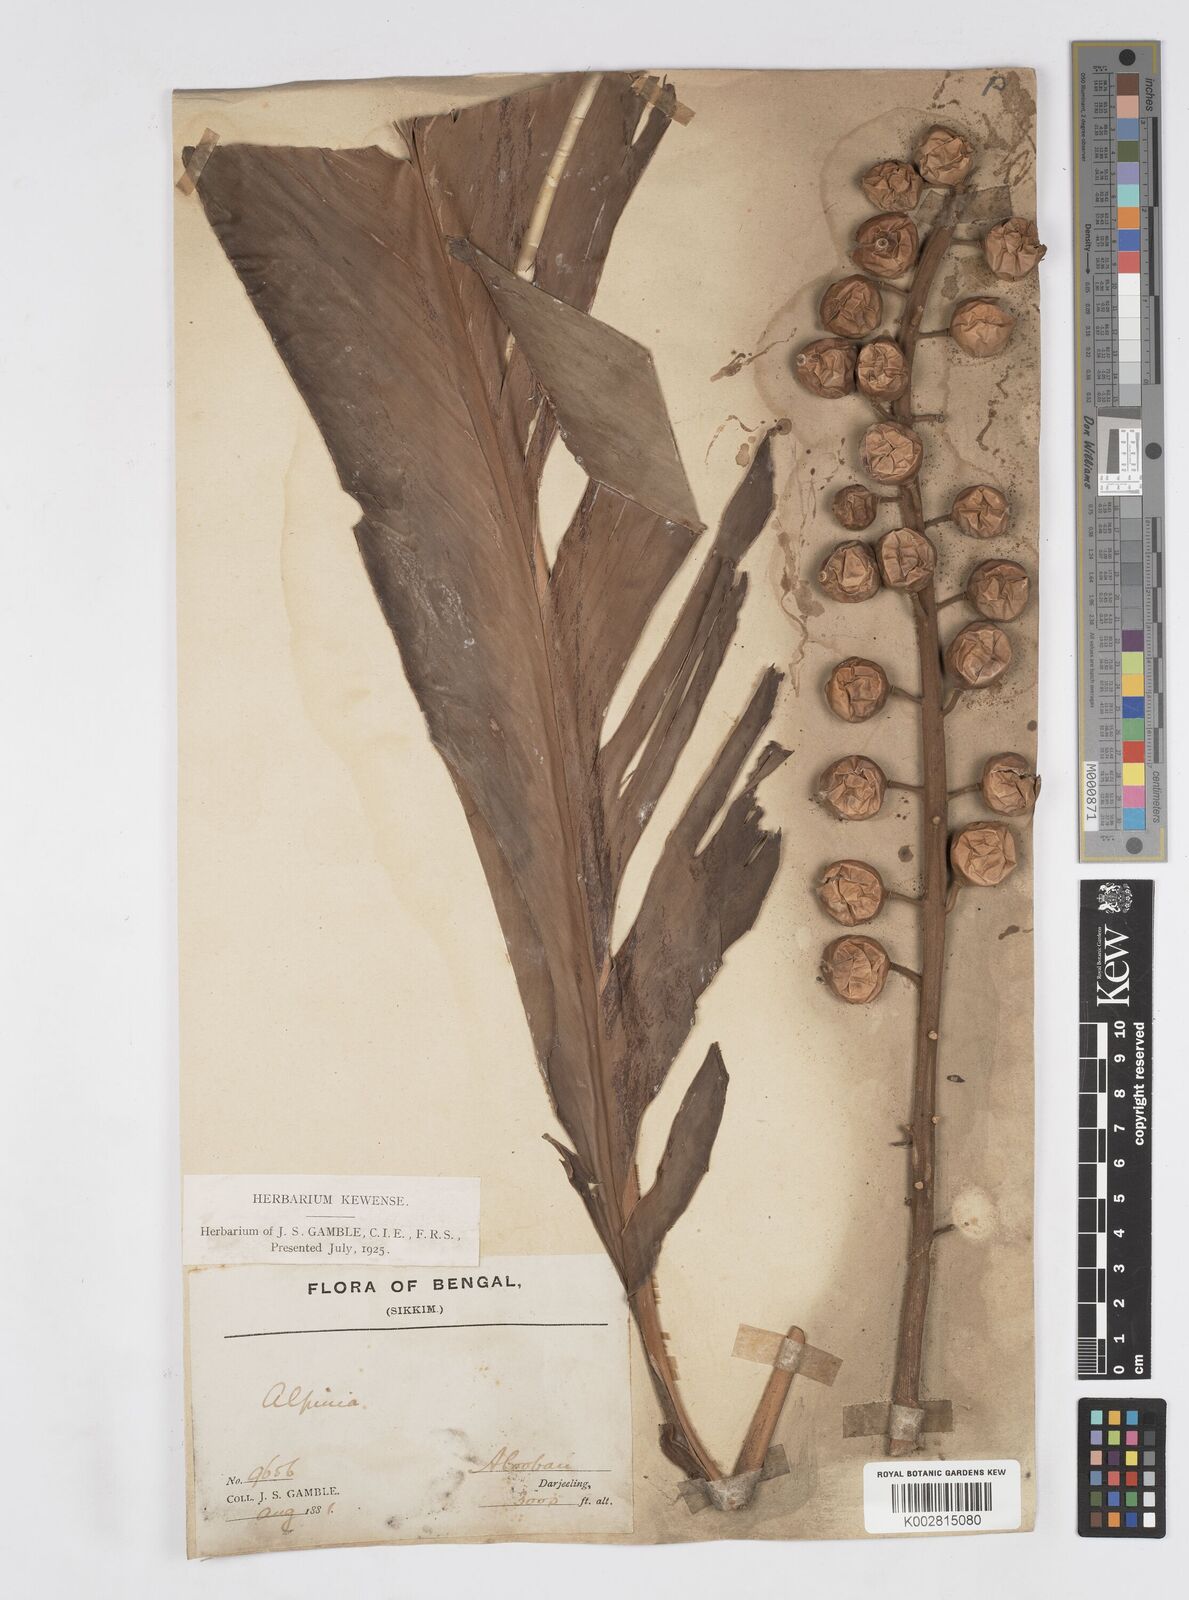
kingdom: Plantae
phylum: Tracheophyta
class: Liliopsida
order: Zingiberales
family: Zingiberaceae
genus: Alpinia
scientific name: Alpinia malaccensis
